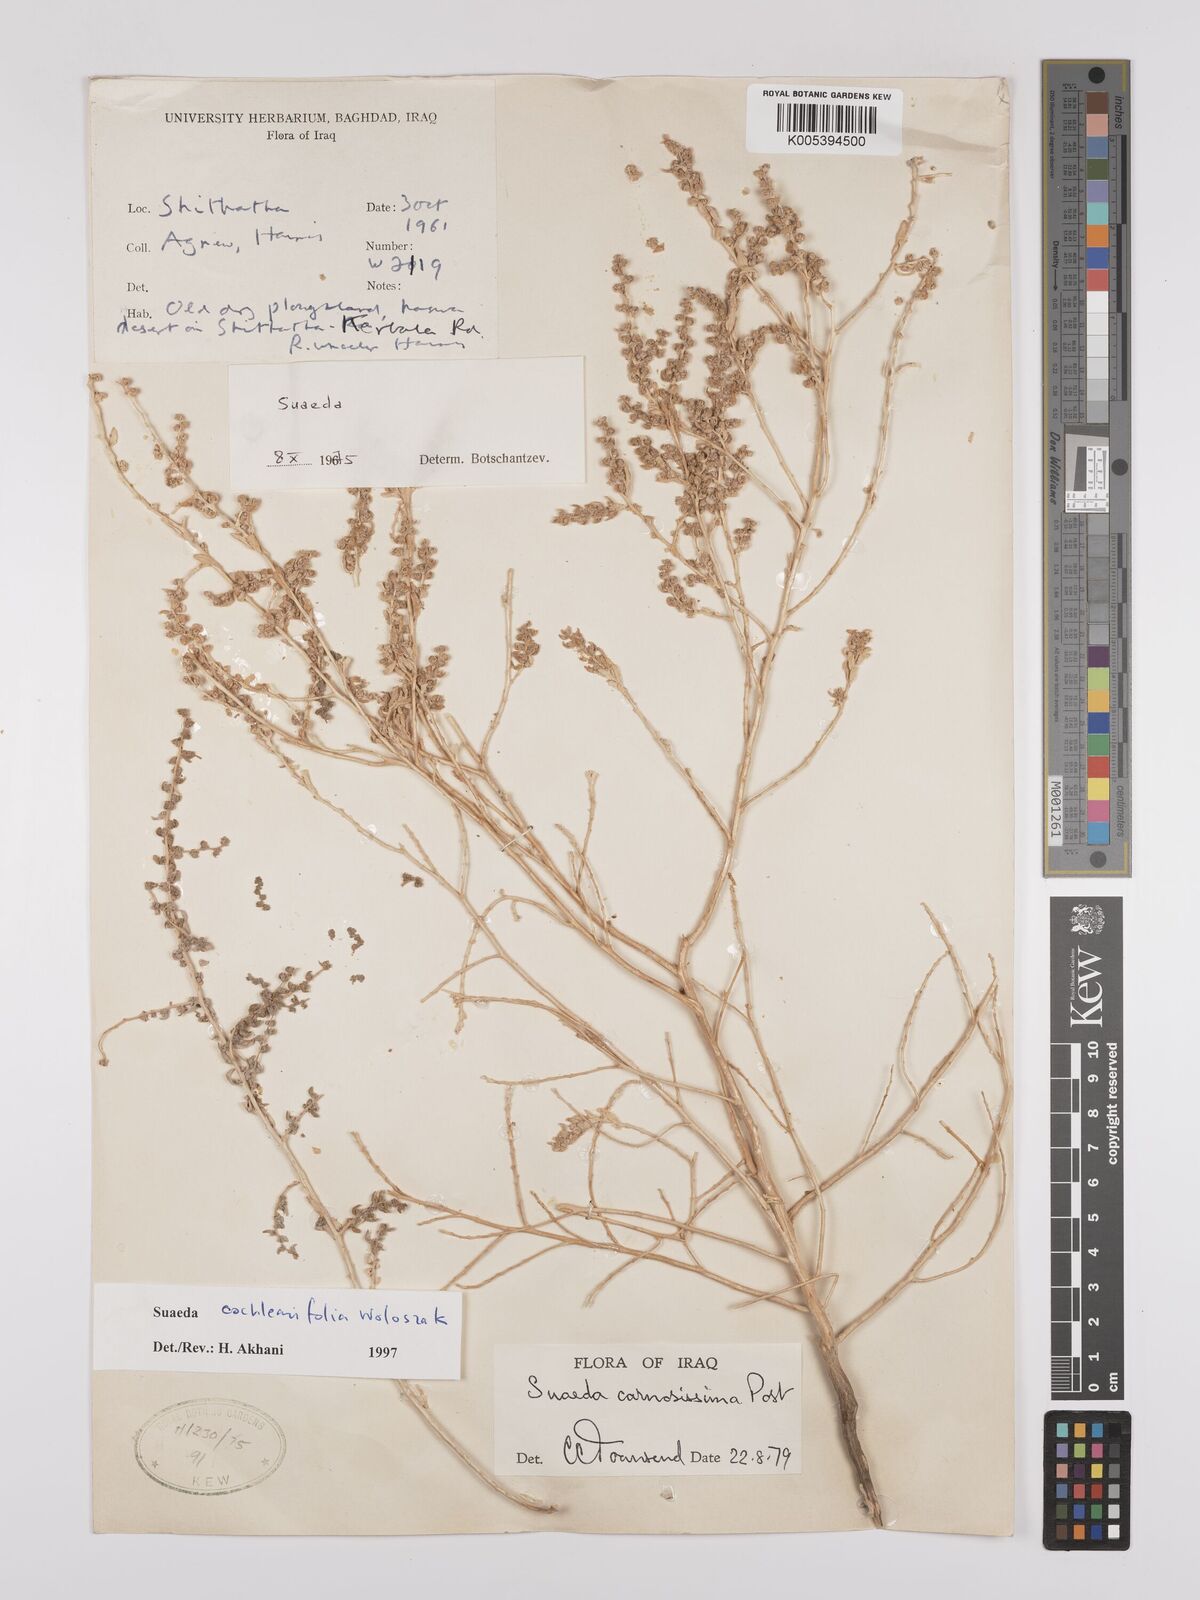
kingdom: Plantae
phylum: Tracheophyta
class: Magnoliopsida
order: Caryophyllales
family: Amaranthaceae
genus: Suaeda
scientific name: Suaeda carnosissima
